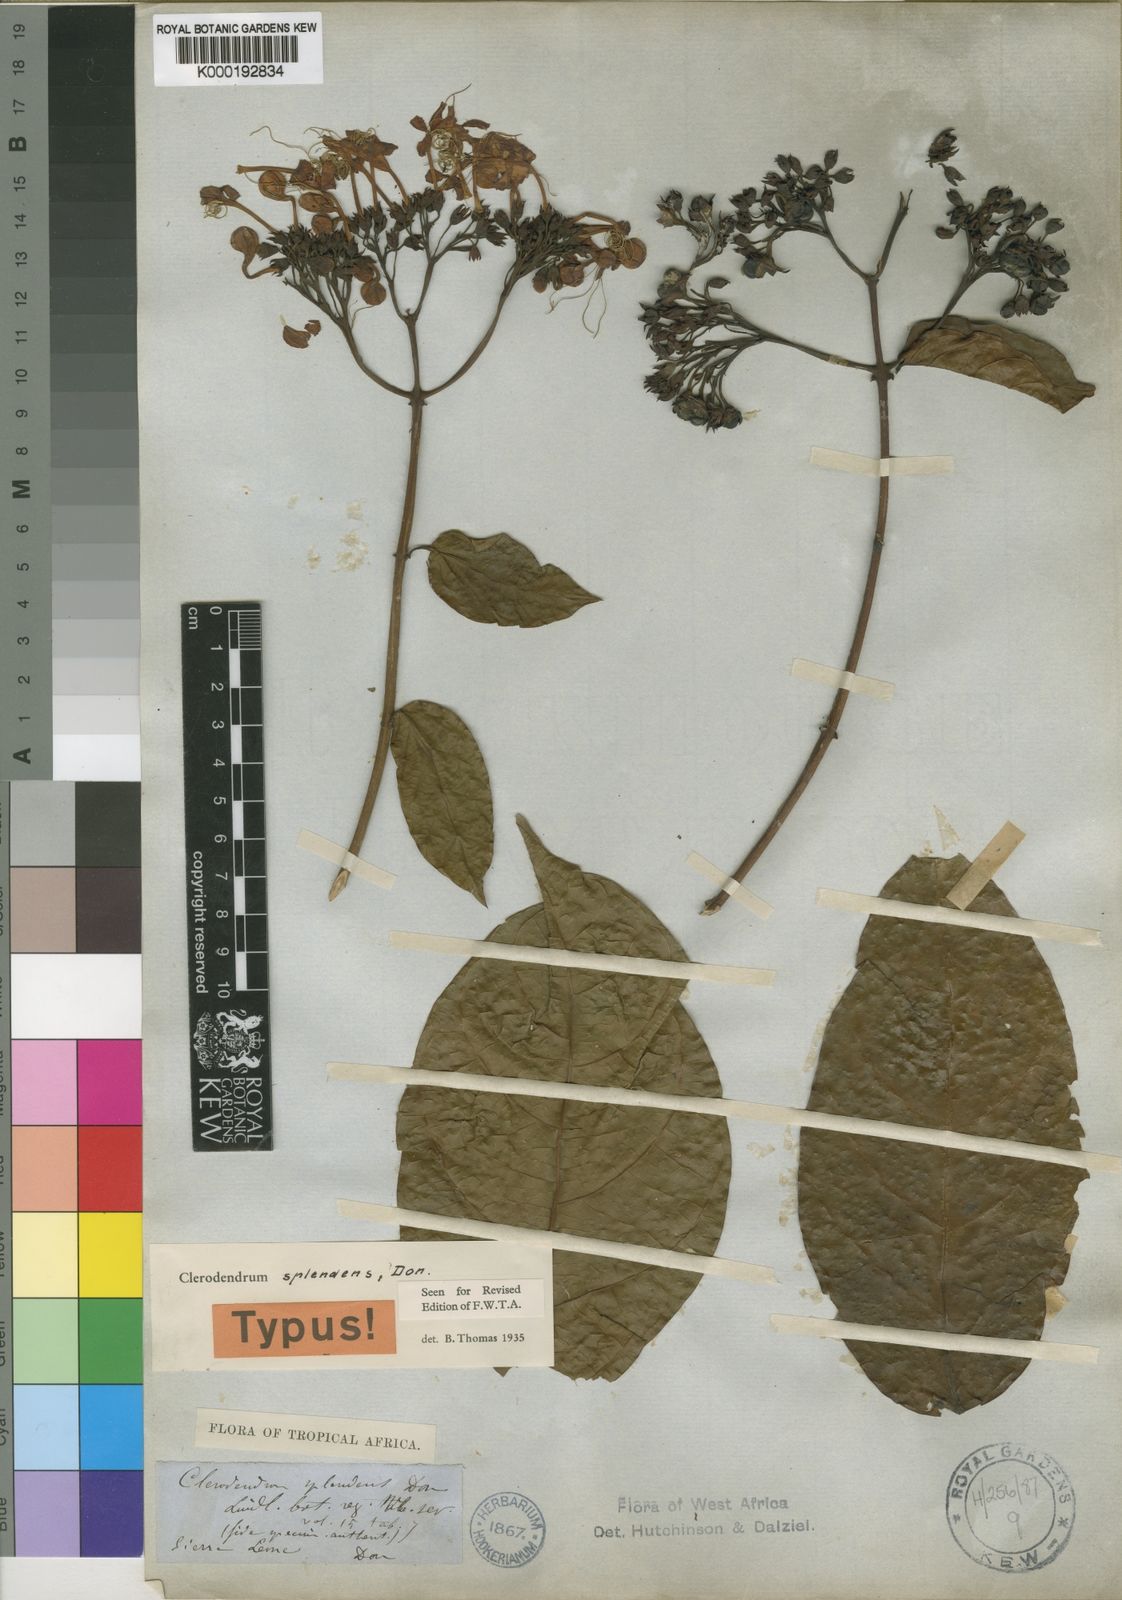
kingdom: Plantae
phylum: Tracheophyta
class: Magnoliopsida
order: Lamiales
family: Lamiaceae
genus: Clerodendrum
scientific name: Clerodendrum splendens
